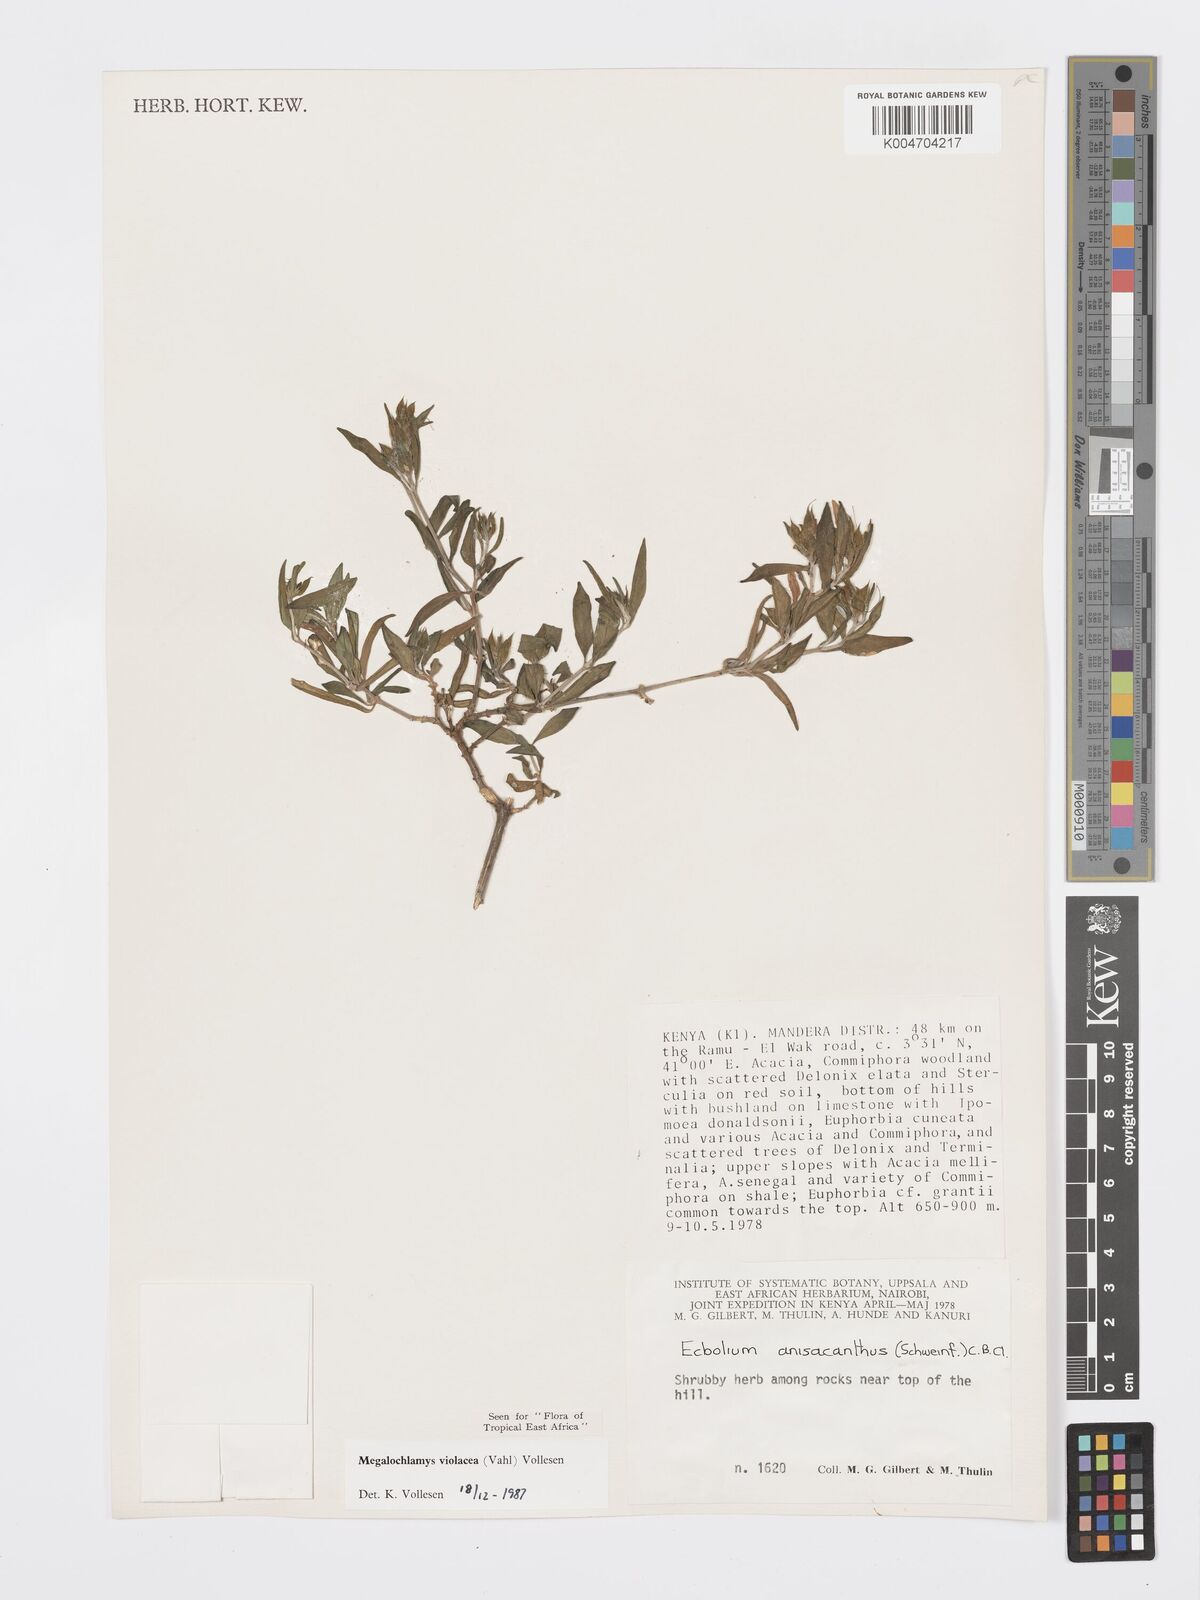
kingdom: Plantae
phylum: Tracheophyta
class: Magnoliopsida
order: Lamiales
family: Acanthaceae
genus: Megalochlamys
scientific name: Megalochlamys violacea
